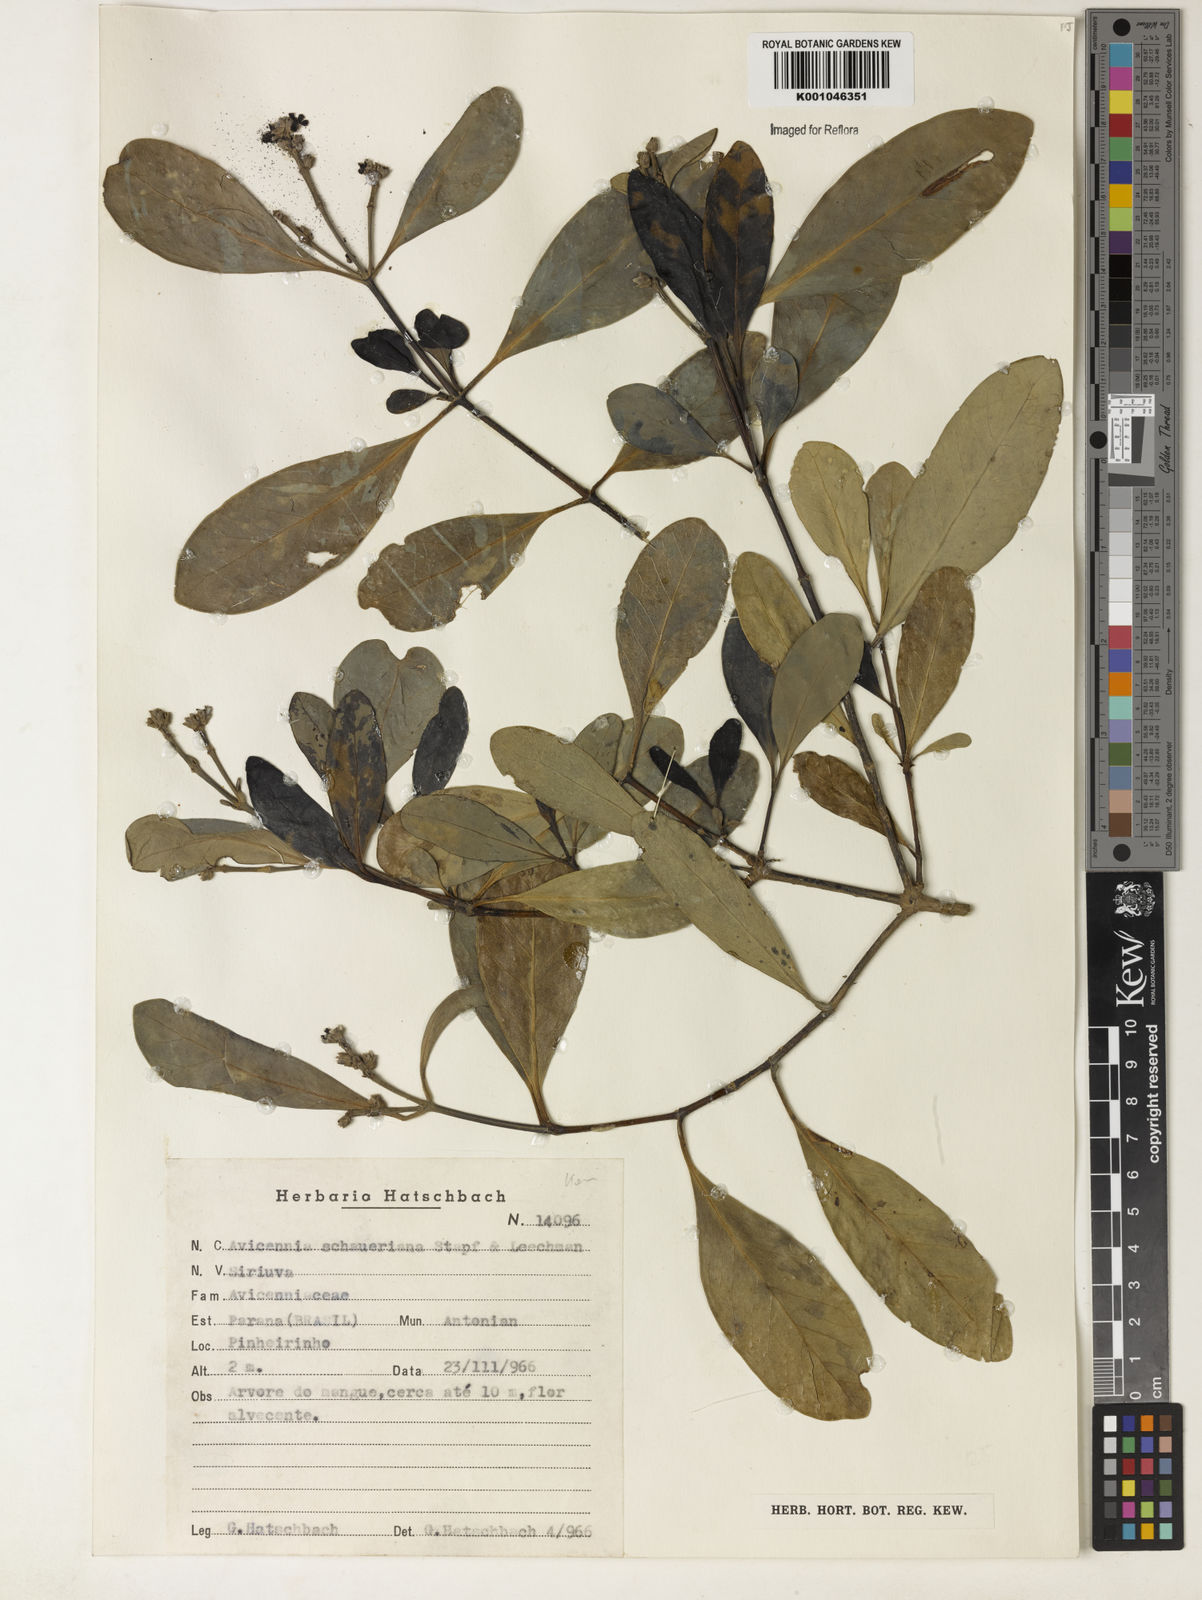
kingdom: Plantae
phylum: Tracheophyta
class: Magnoliopsida
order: Lamiales
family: Acanthaceae
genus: Avicennia
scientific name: Avicennia schaueriana
